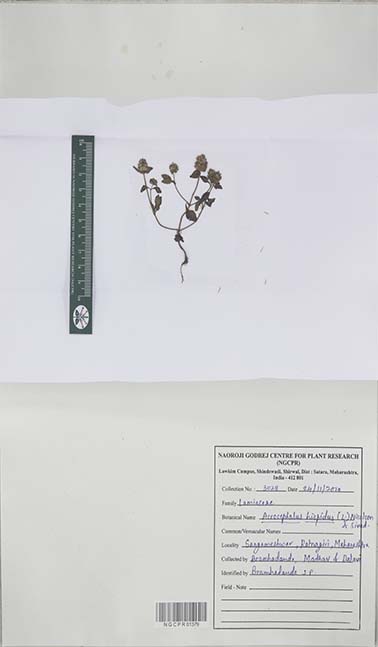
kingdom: Plantae
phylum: Tracheophyta
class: Magnoliopsida
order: Lamiales
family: Lamiaceae
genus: Platostoma
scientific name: Platostoma hispidum
